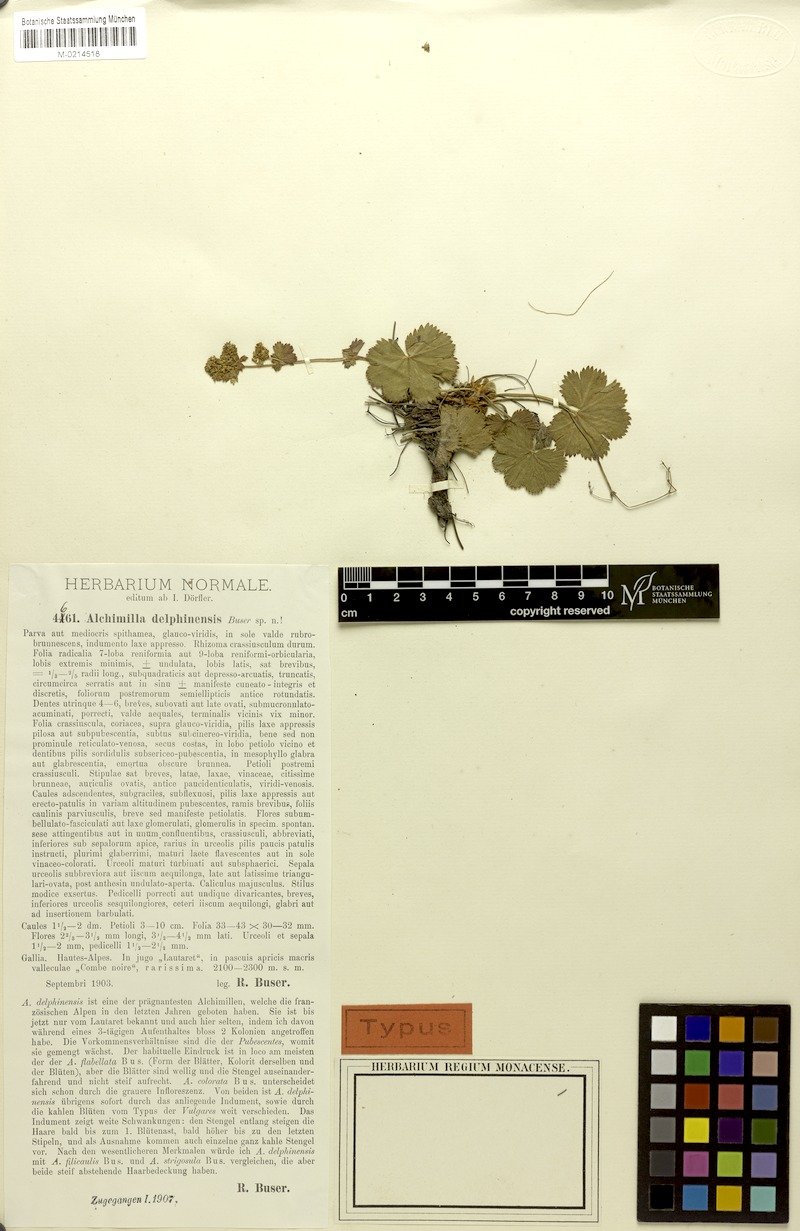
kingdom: Plantae
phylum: Tracheophyta
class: Magnoliopsida
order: Rosales
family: Rosaceae
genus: Alchemilla
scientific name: Alchemilla delphinensis
